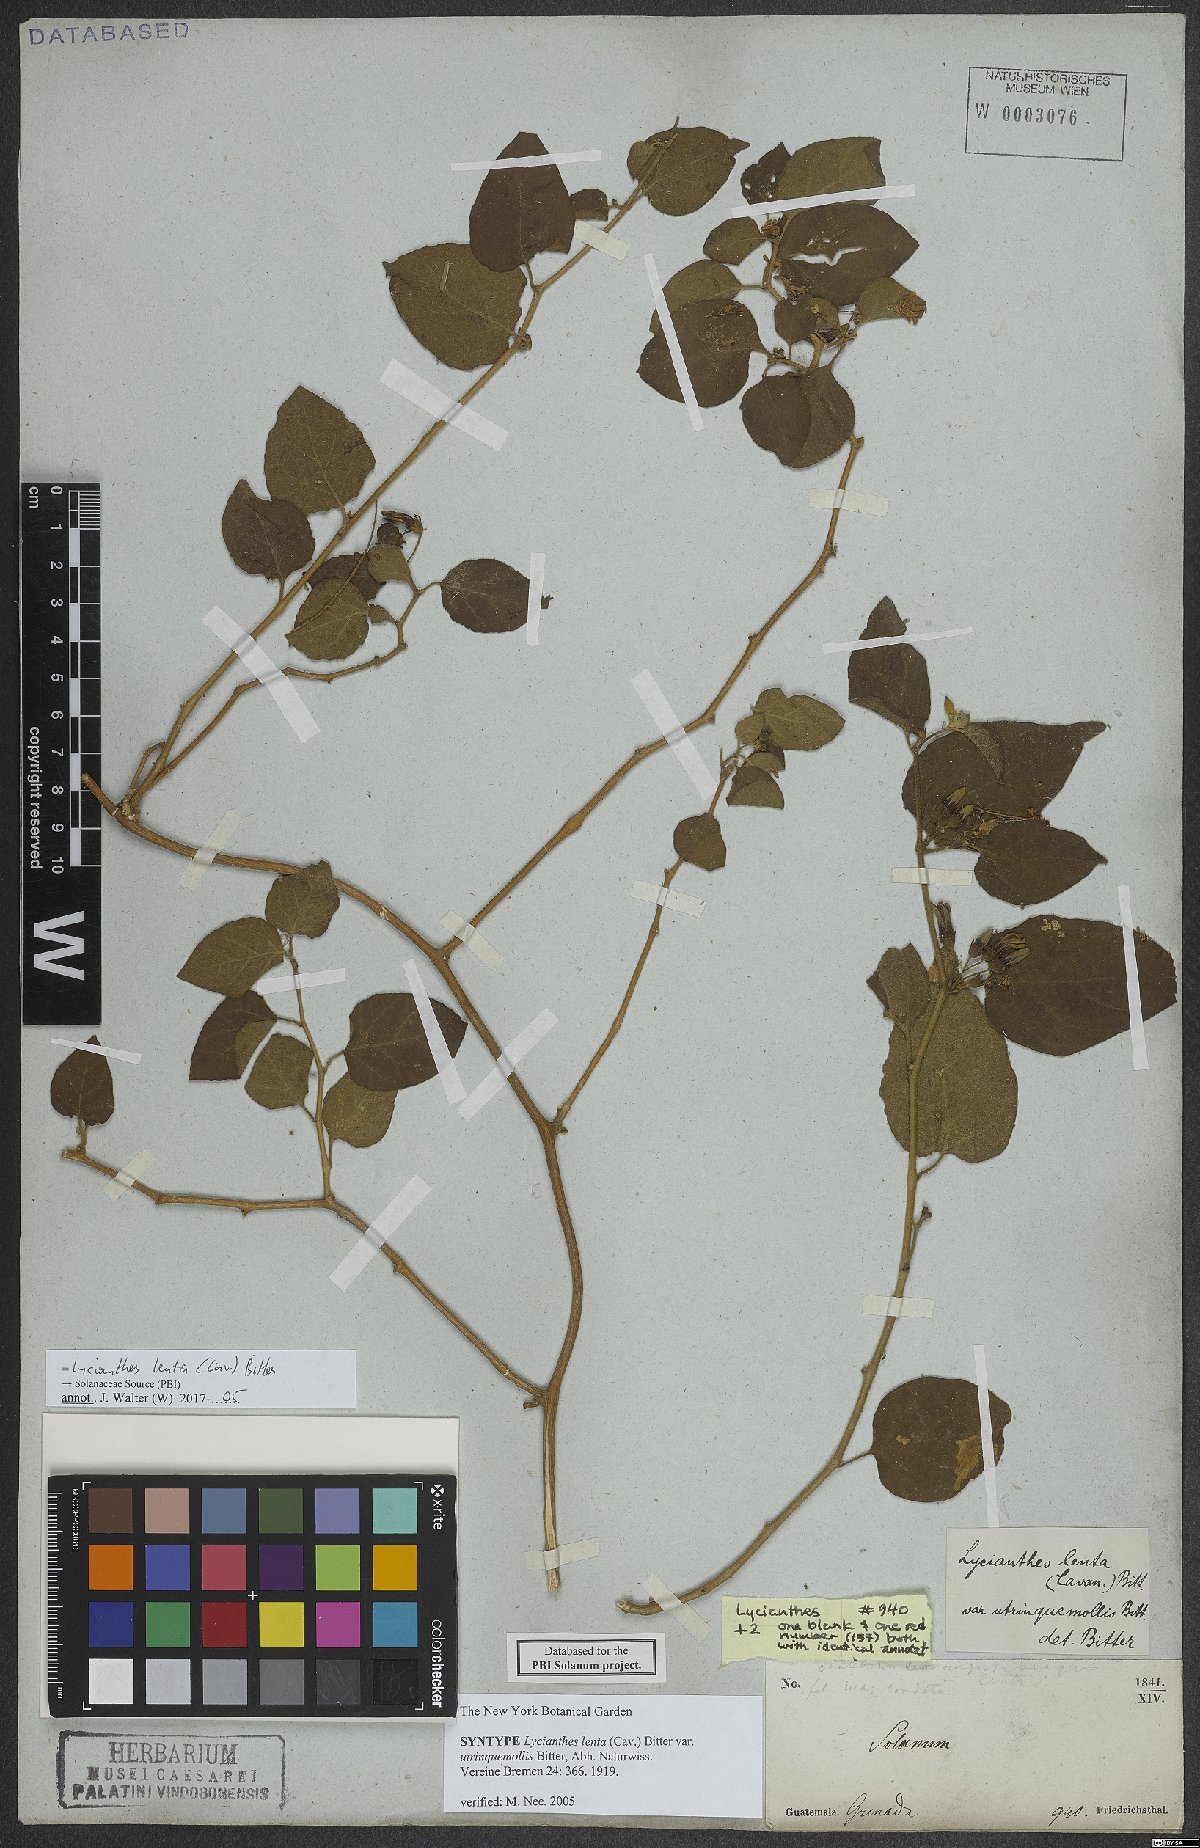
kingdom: Plantae
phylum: Tracheophyta
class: Magnoliopsida
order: Solanales
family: Solanaceae
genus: Lycianthes
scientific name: Lycianthes scandens
